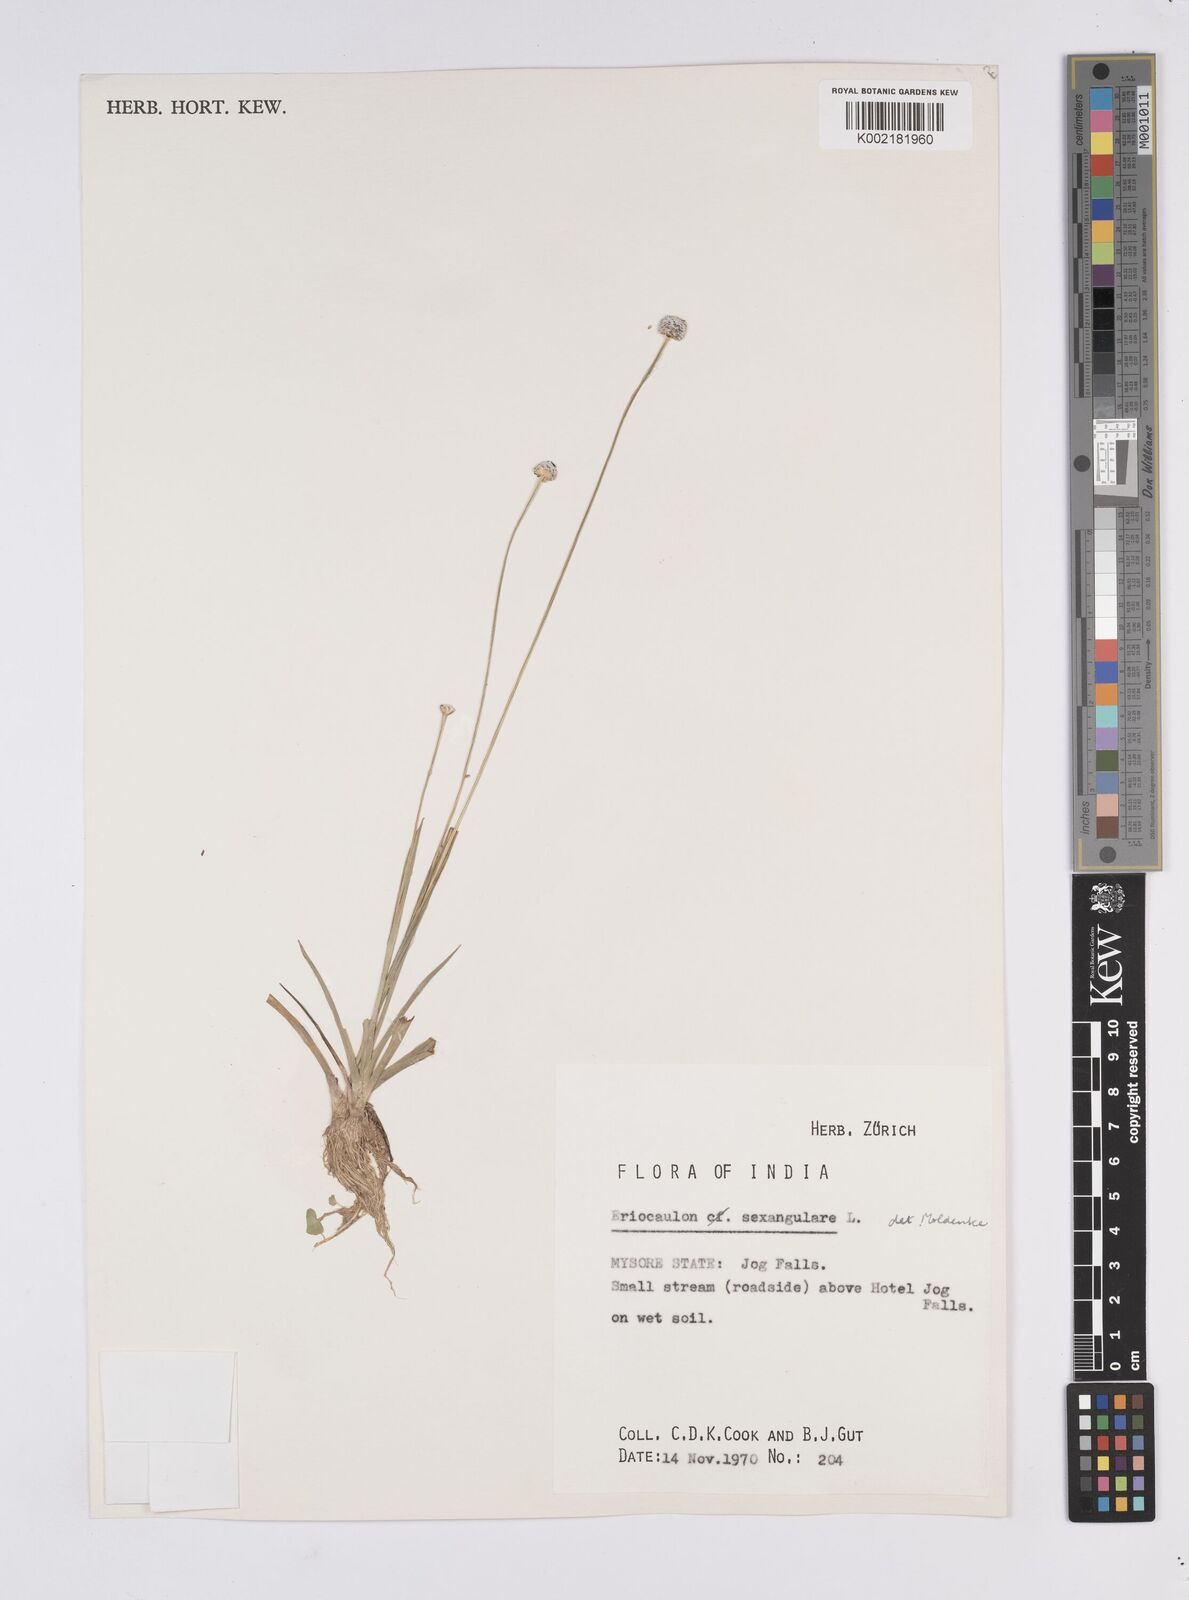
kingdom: Plantae
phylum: Tracheophyta
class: Liliopsida
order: Poales
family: Eriocaulaceae
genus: Eriocaulon
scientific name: Eriocaulon sexangulare
